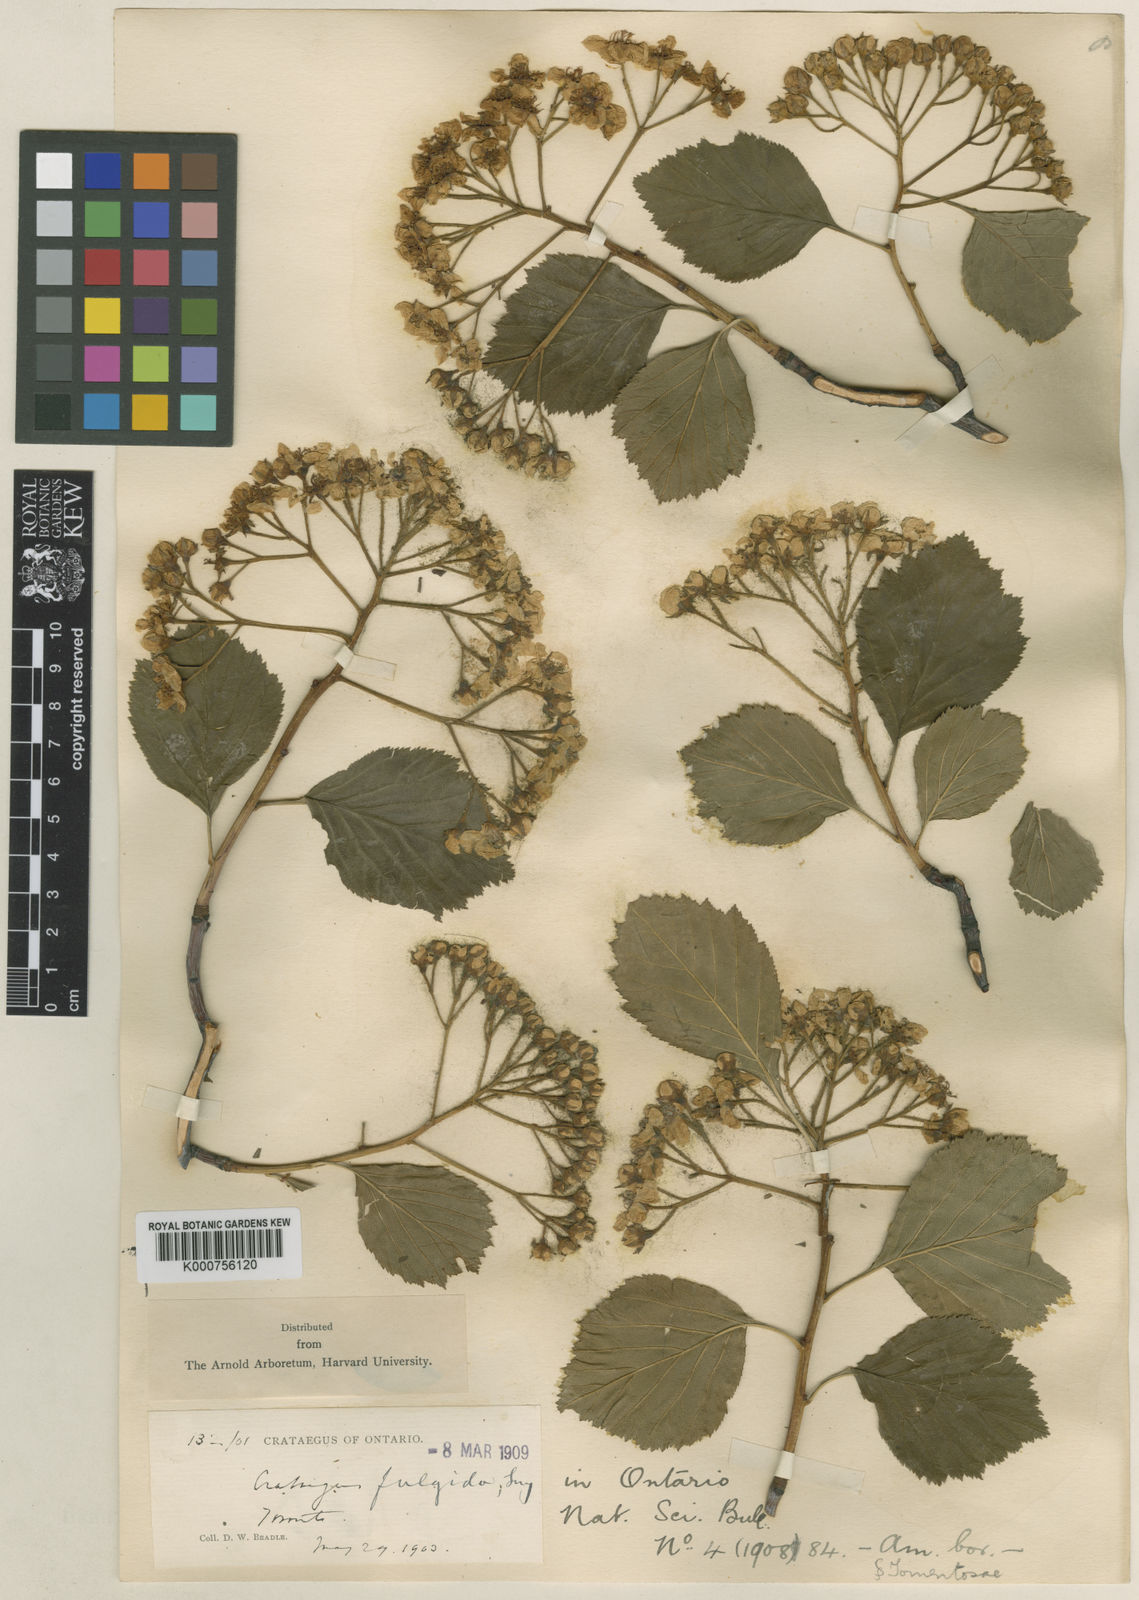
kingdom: Plantae
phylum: Tracheophyta
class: Magnoliopsida
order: Rosales
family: Rosaceae
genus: Crataegus
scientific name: Crataegus fulgida
